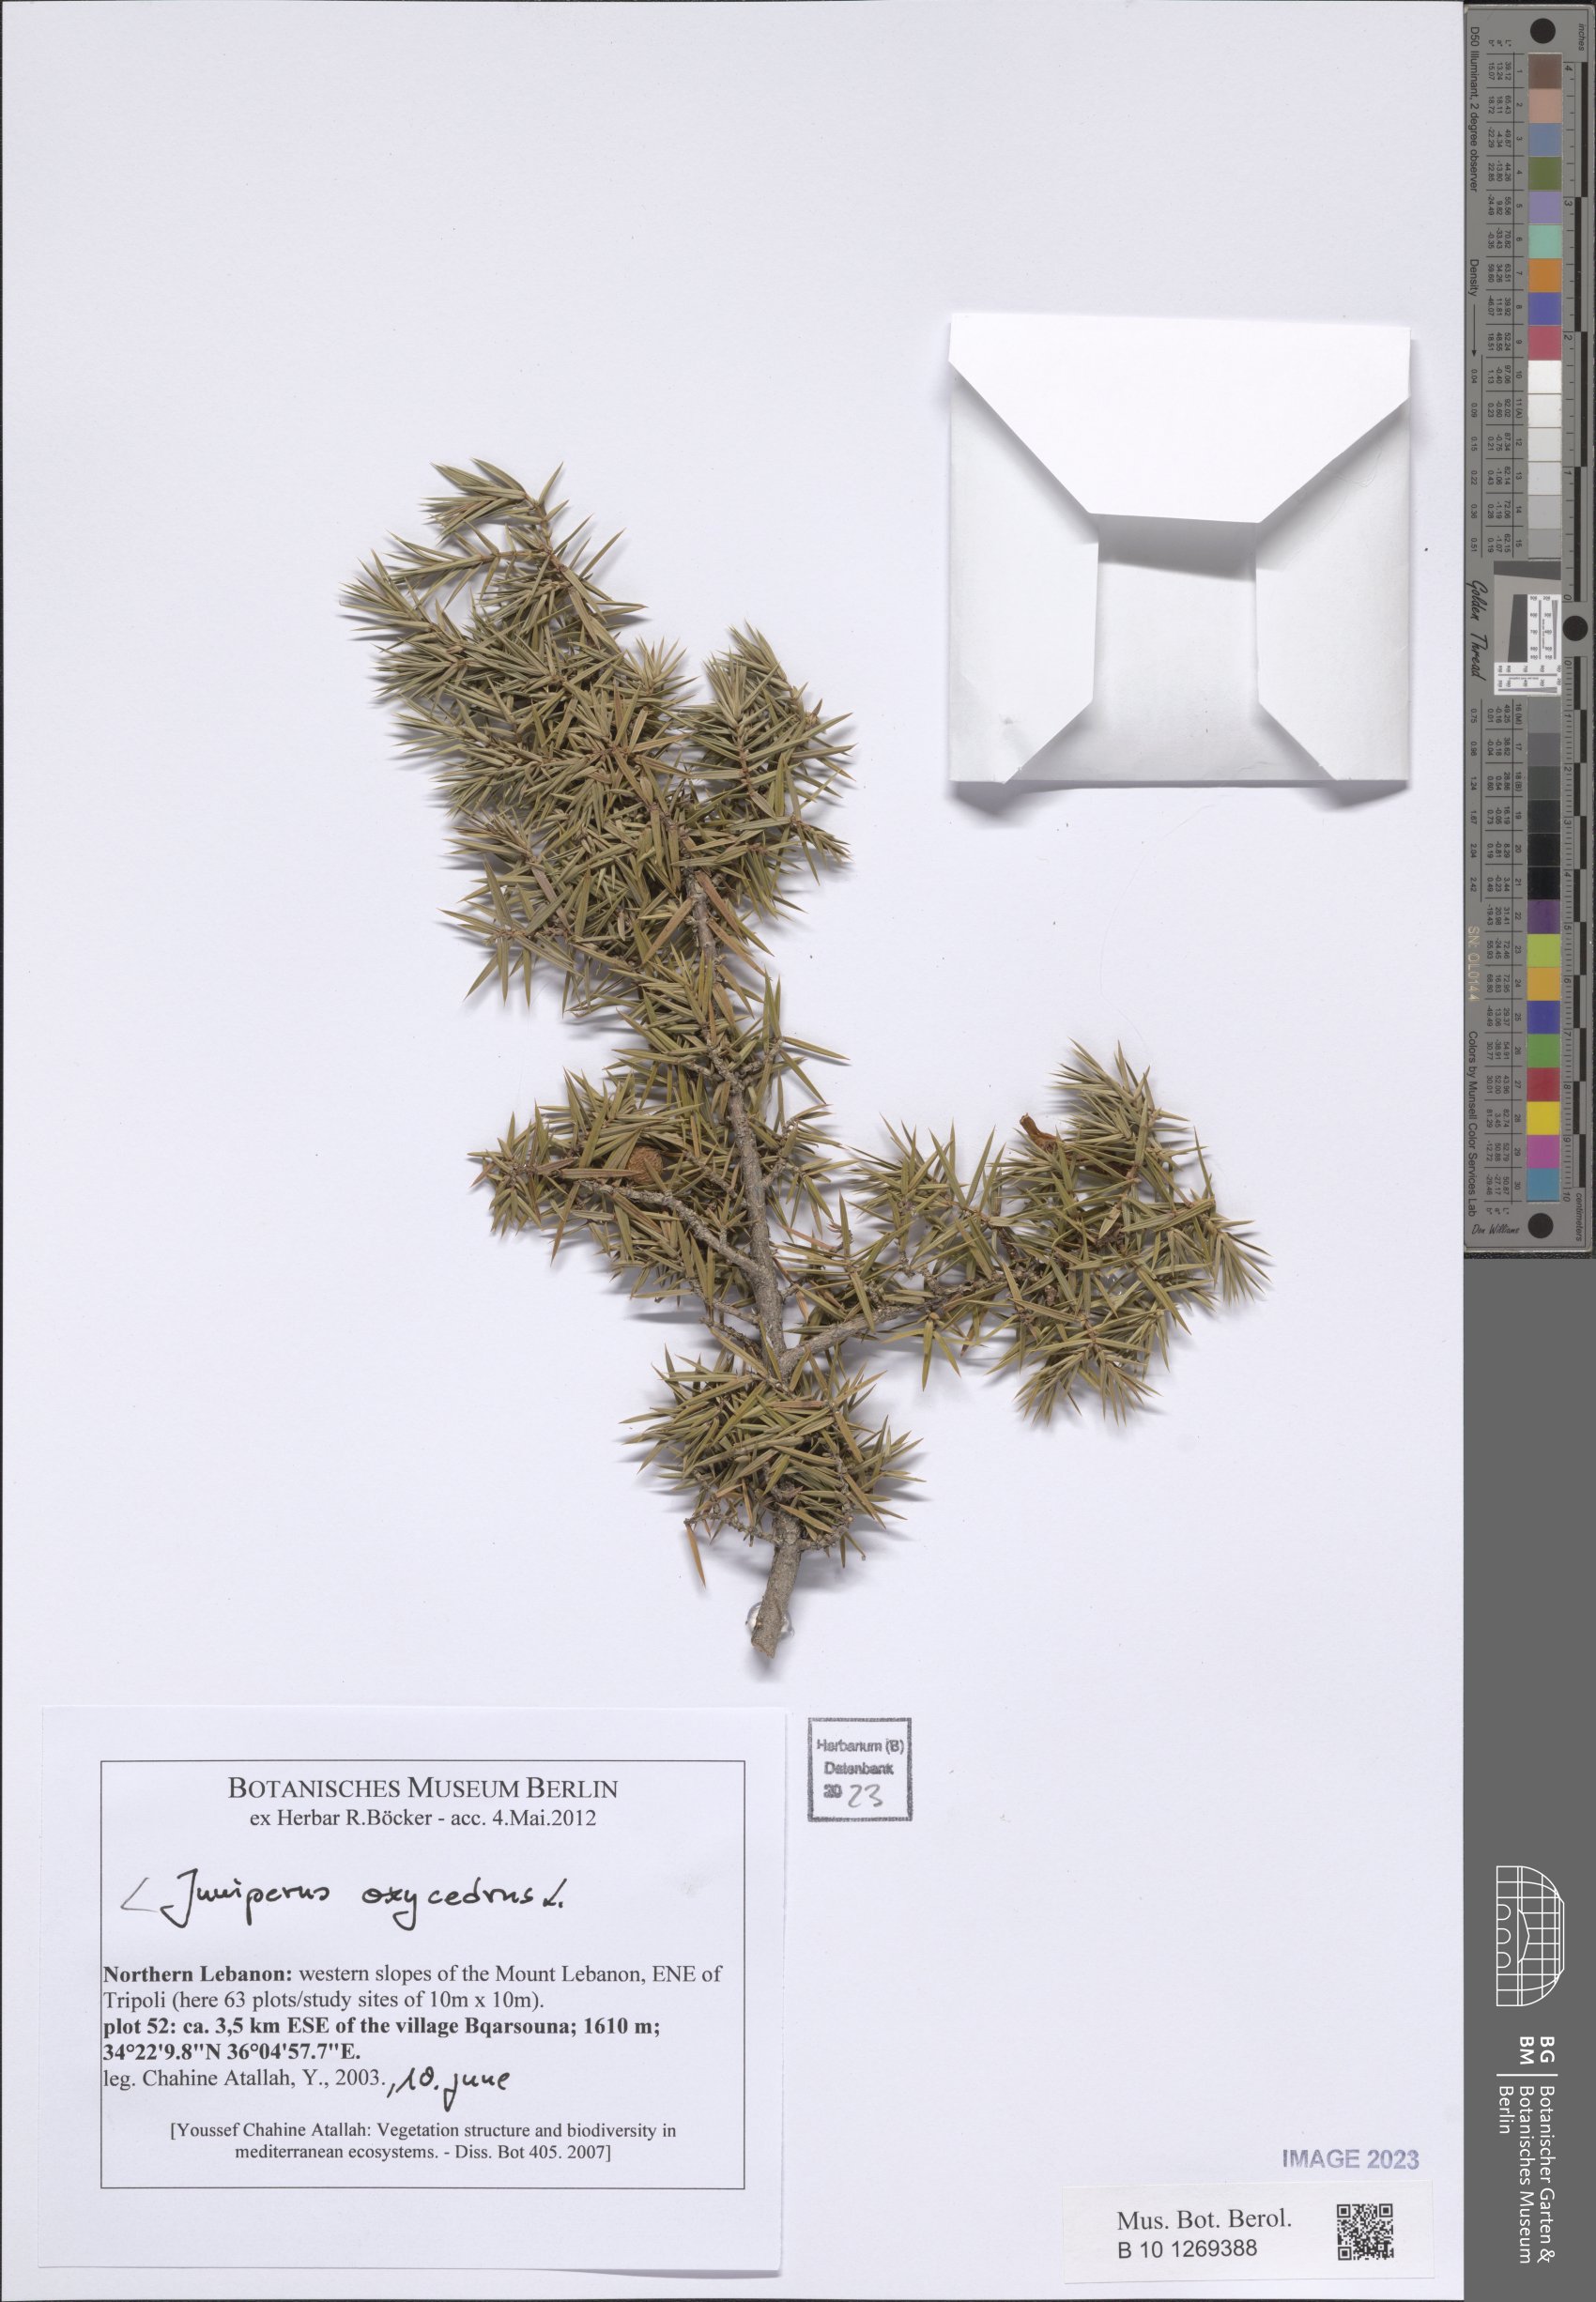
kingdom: Plantae
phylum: Tracheophyta
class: Pinopsida
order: Pinales
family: Cupressaceae
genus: Juniperus
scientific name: Juniperus oxycedrus
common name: Prickly juniper
